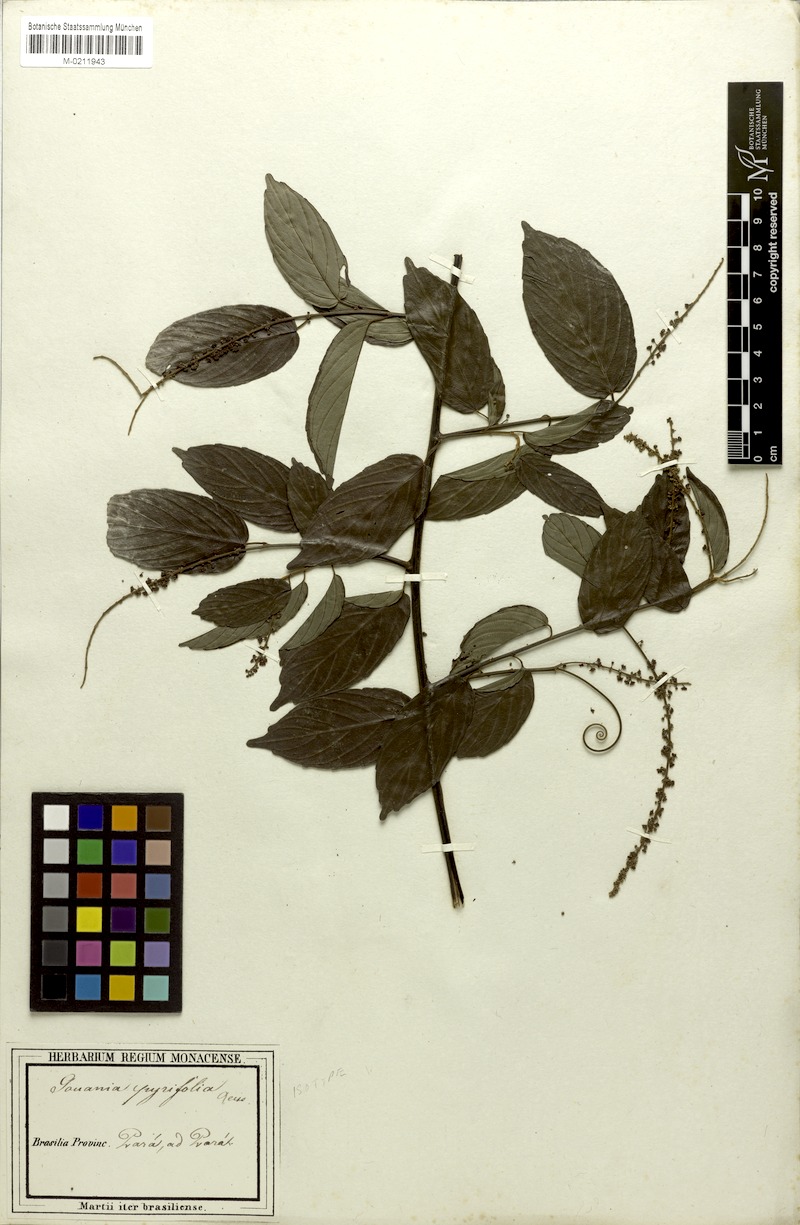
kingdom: Plantae
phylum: Tracheophyta
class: Magnoliopsida
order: Rosales
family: Rhamnaceae
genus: Gouania
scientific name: Gouania pyrifolia
